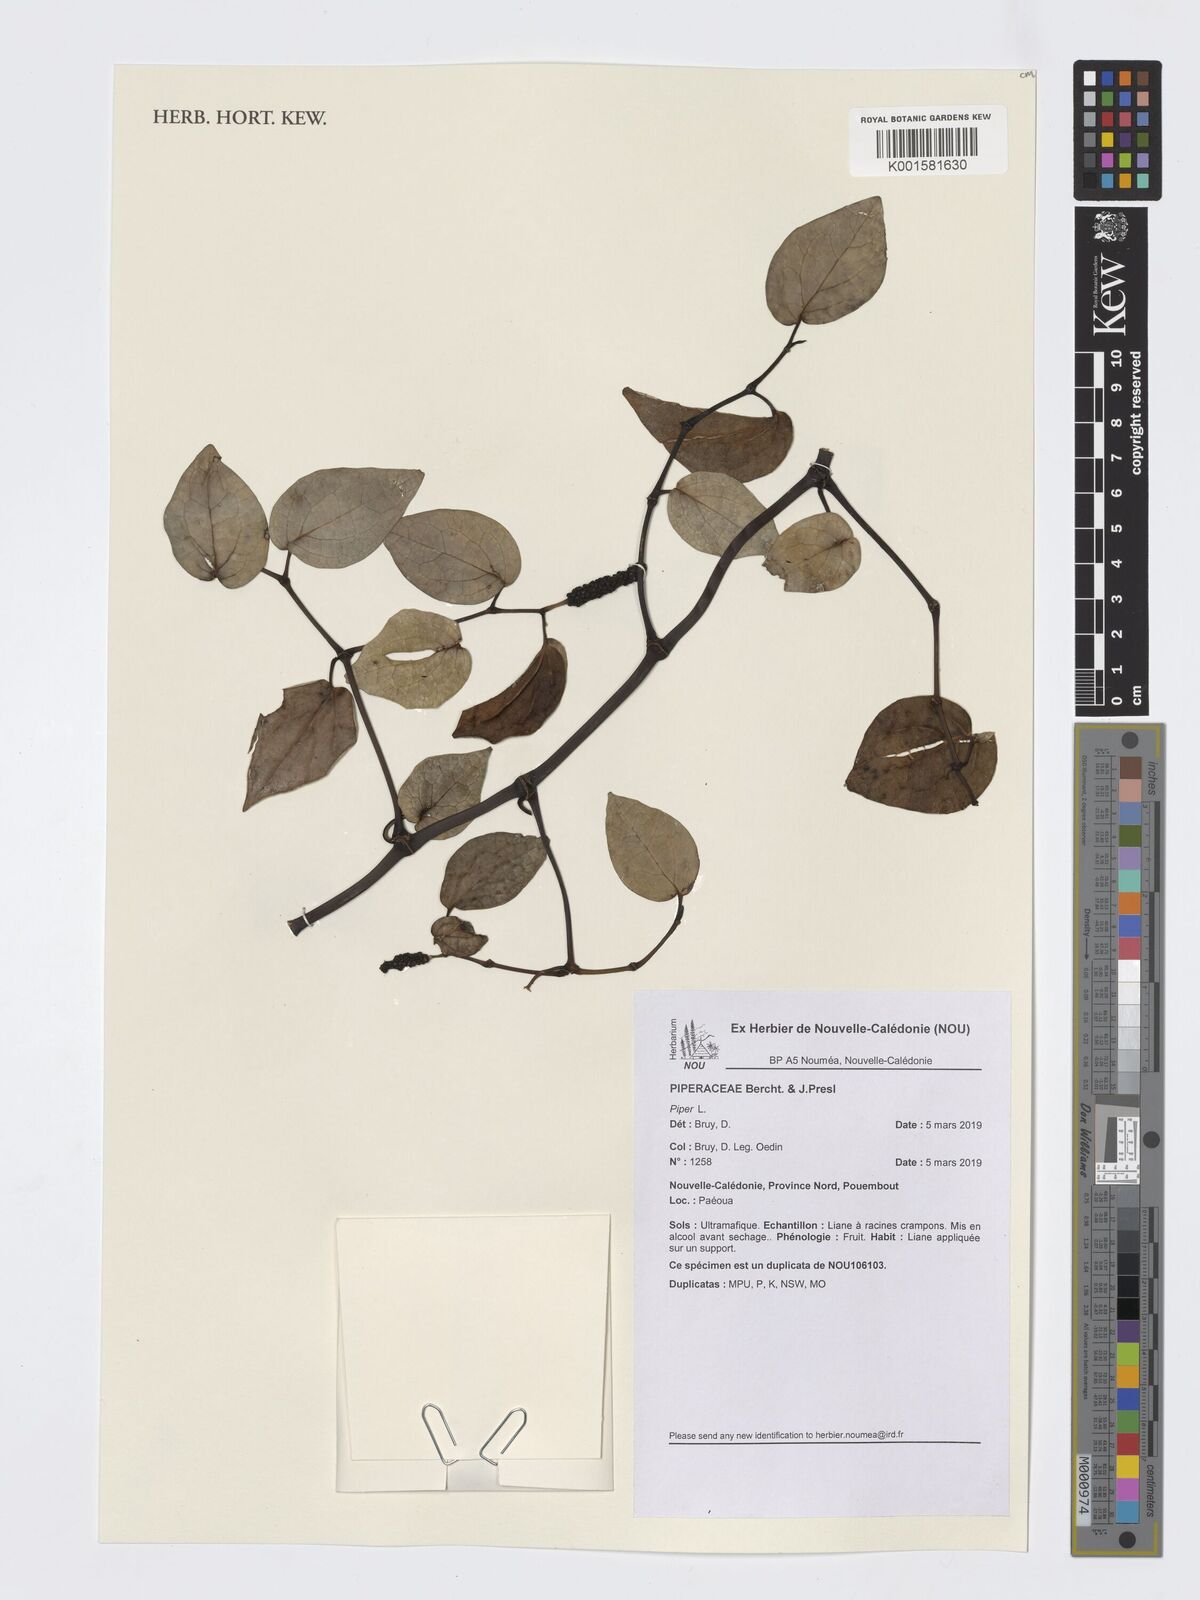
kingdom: Plantae
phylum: Tracheophyta
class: Magnoliopsida
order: Piperales
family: Piperaceae
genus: Piper
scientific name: Piper
